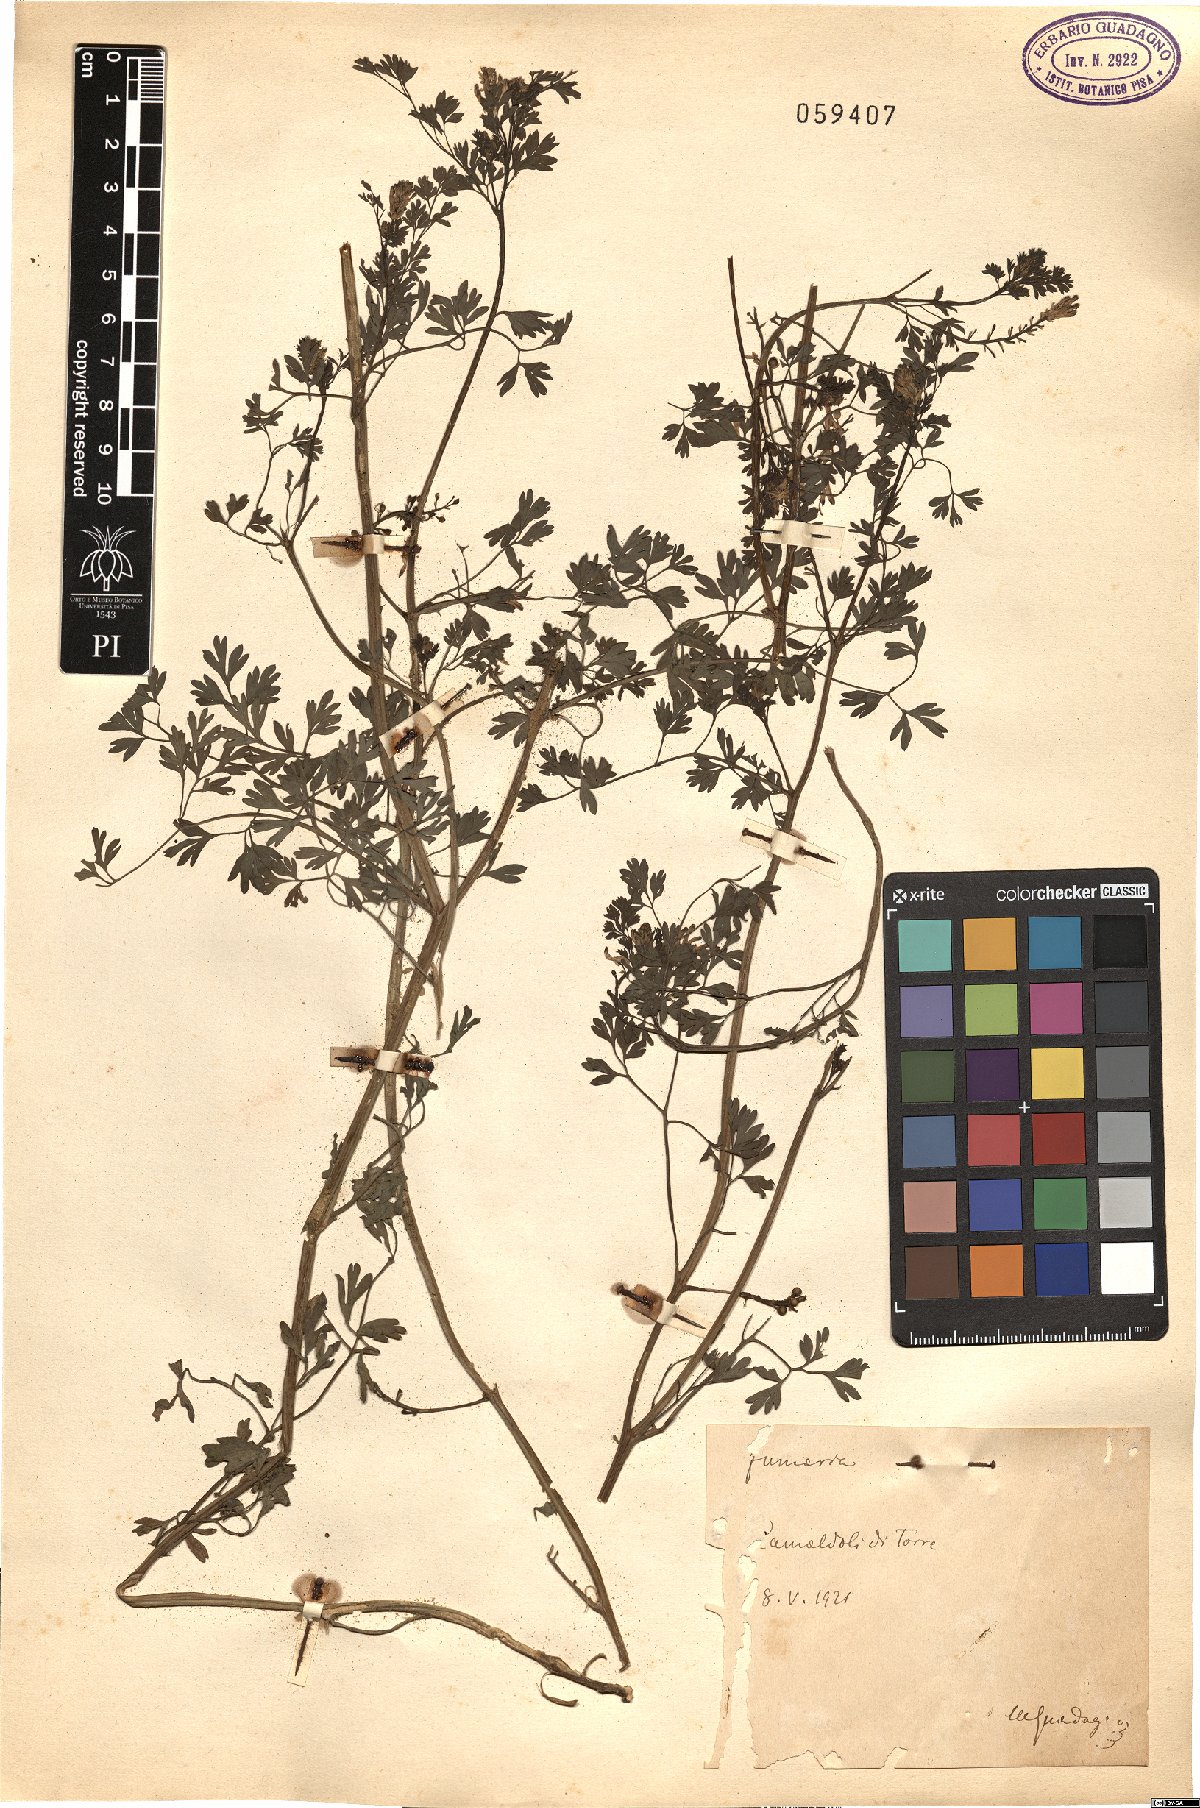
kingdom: Plantae
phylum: Tracheophyta
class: Magnoliopsida
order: Ranunculales
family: Papaveraceae
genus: Fumaria
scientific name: Fumaria
